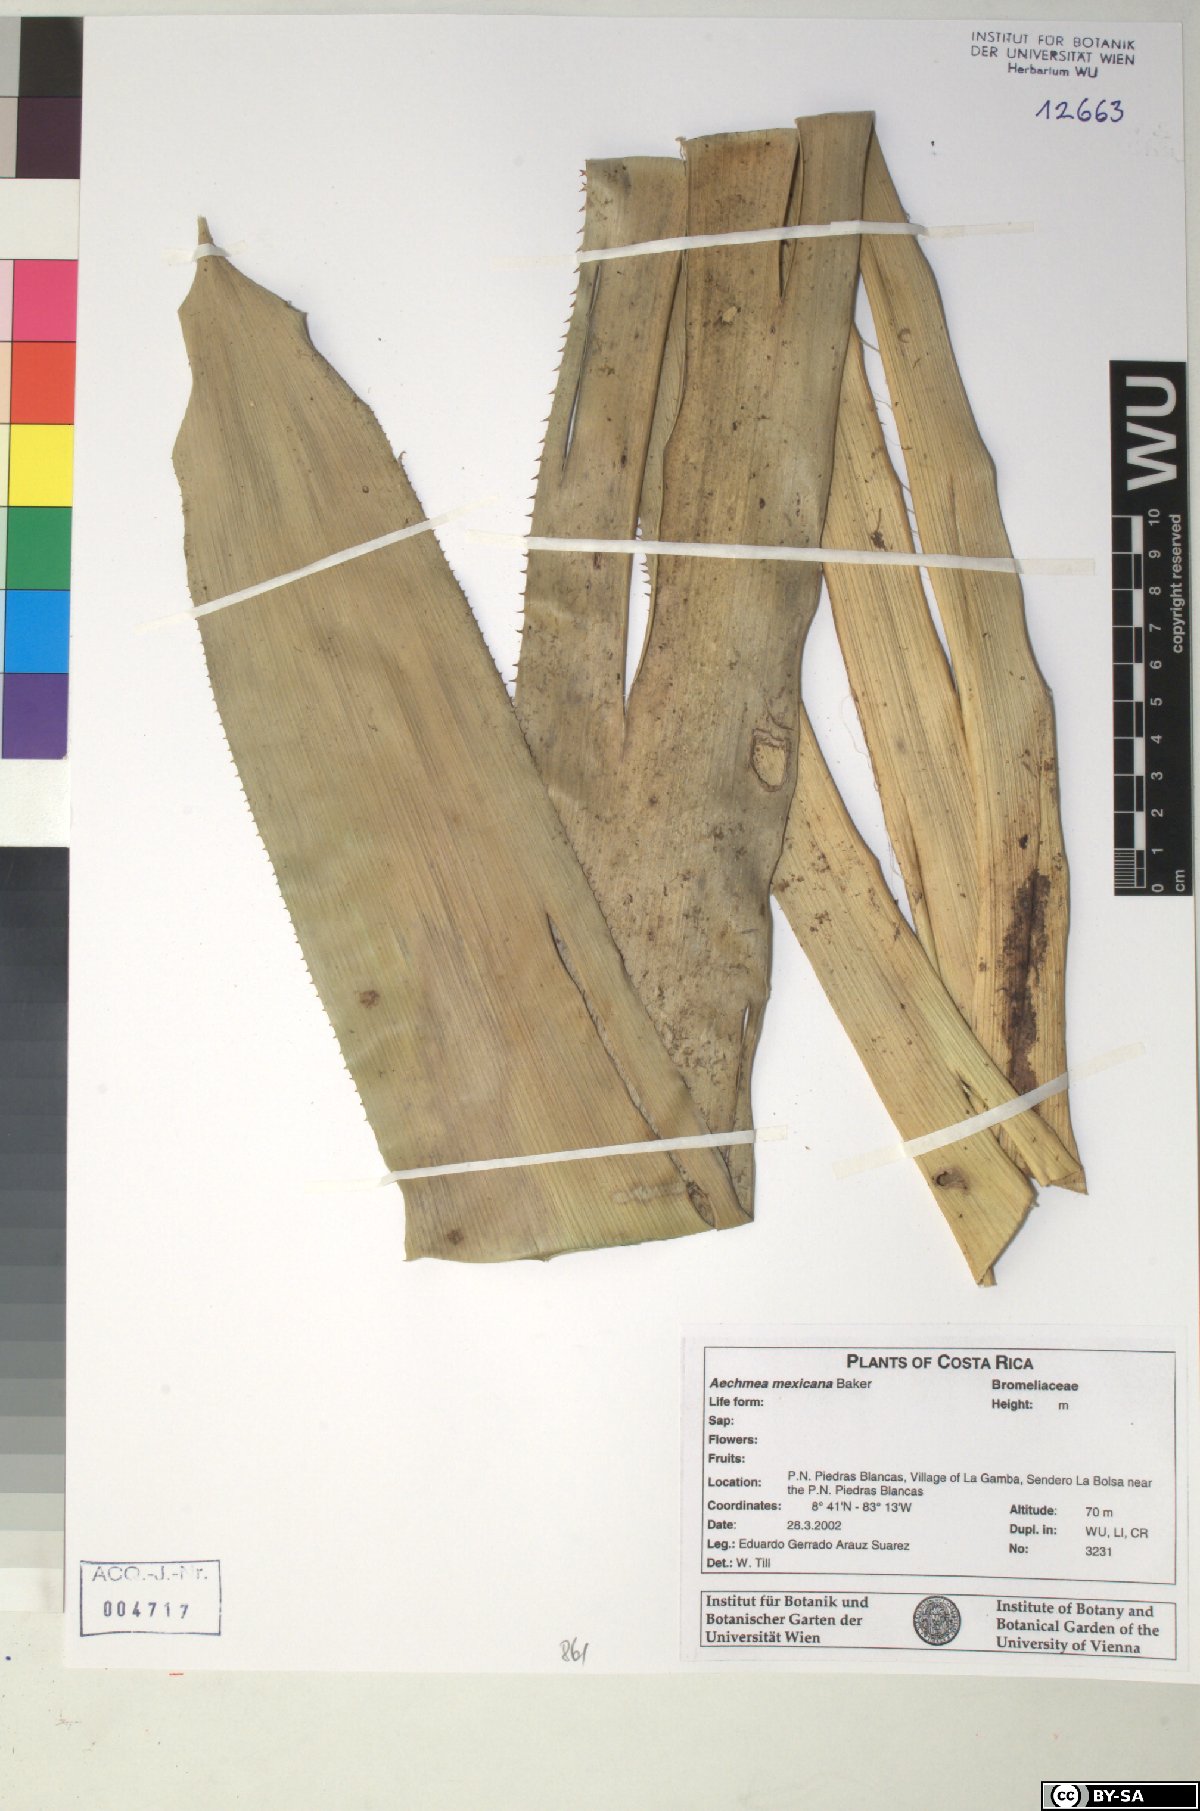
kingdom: Plantae
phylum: Tracheophyta
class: Liliopsida
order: Poales
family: Bromeliaceae
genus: Aechmea
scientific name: Aechmea mexicana
